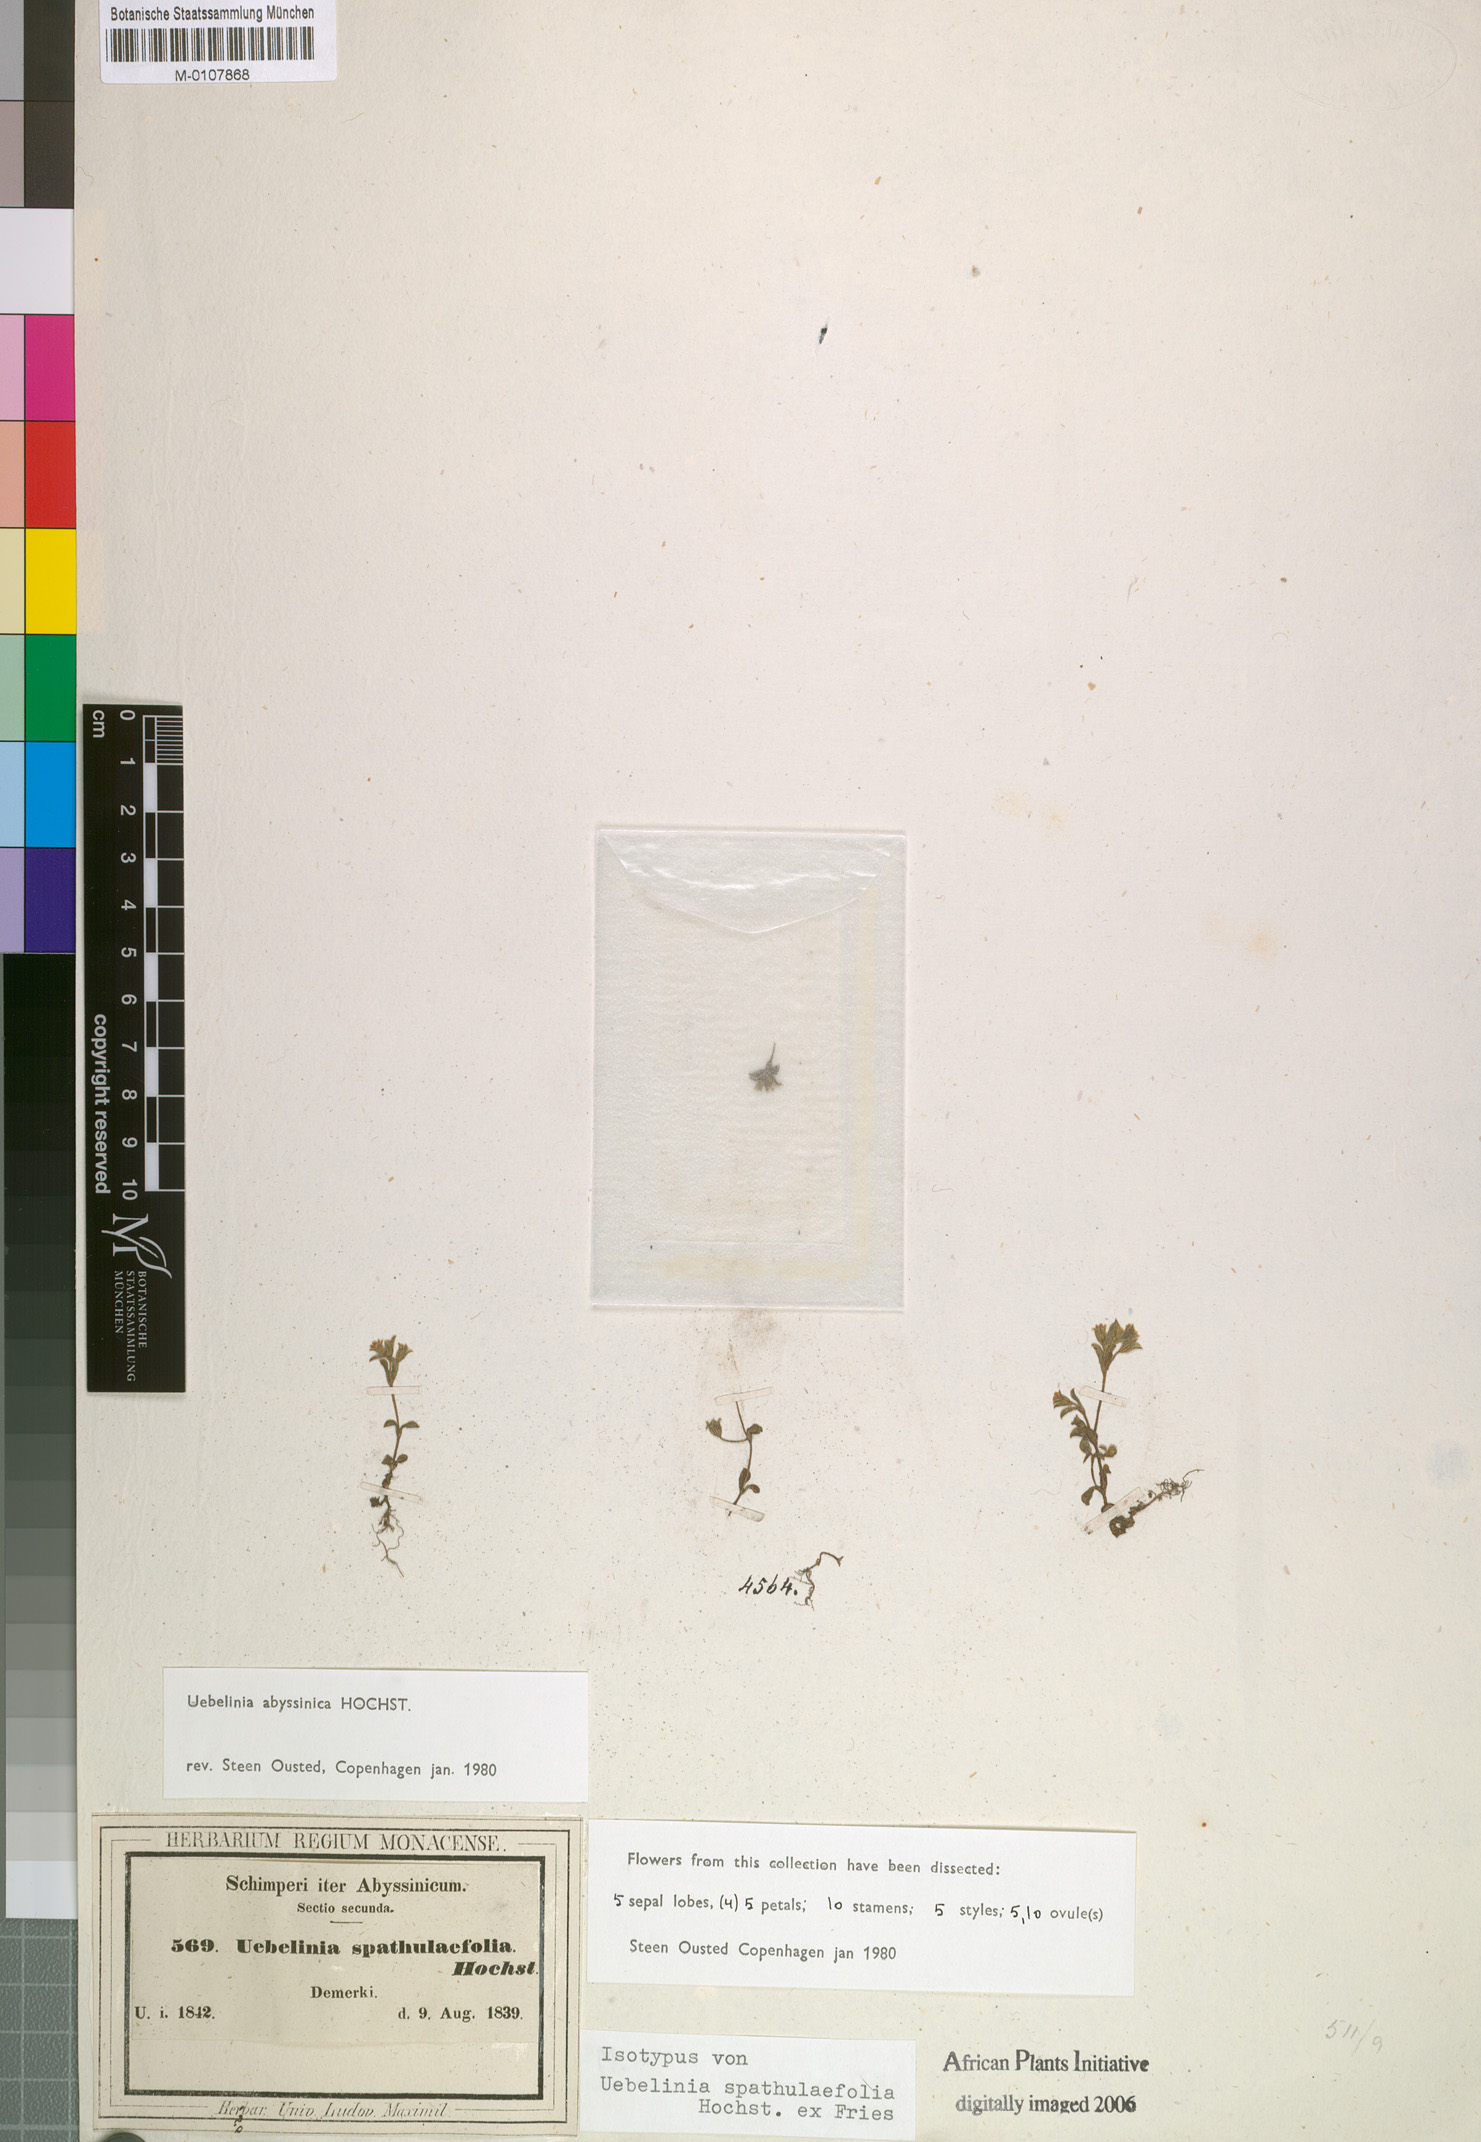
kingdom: Plantae
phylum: Tracheophyta
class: Magnoliopsida
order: Caryophyllales
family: Caryophyllaceae
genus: Silene
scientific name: Silene abyssinica
